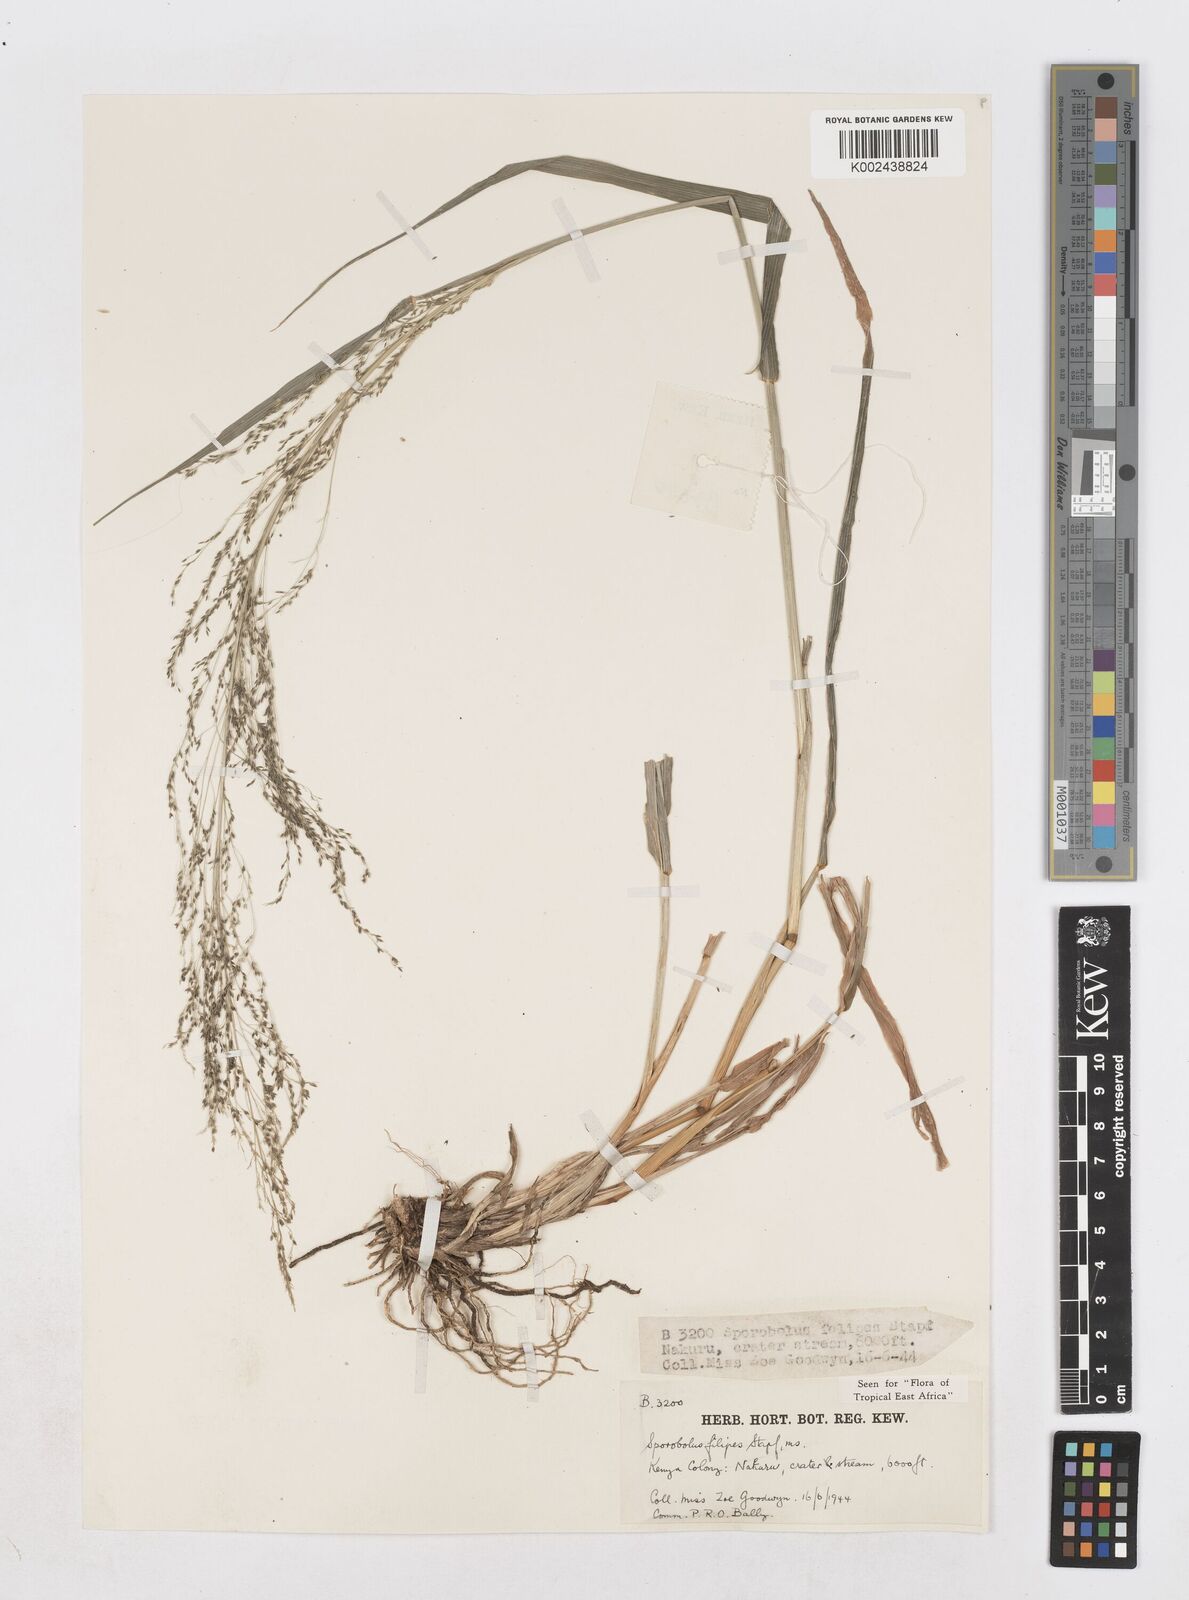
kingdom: Plantae
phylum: Tracheophyta
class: Liliopsida
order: Poales
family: Poaceae
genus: Sporobolus
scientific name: Sporobolus agrostoides
